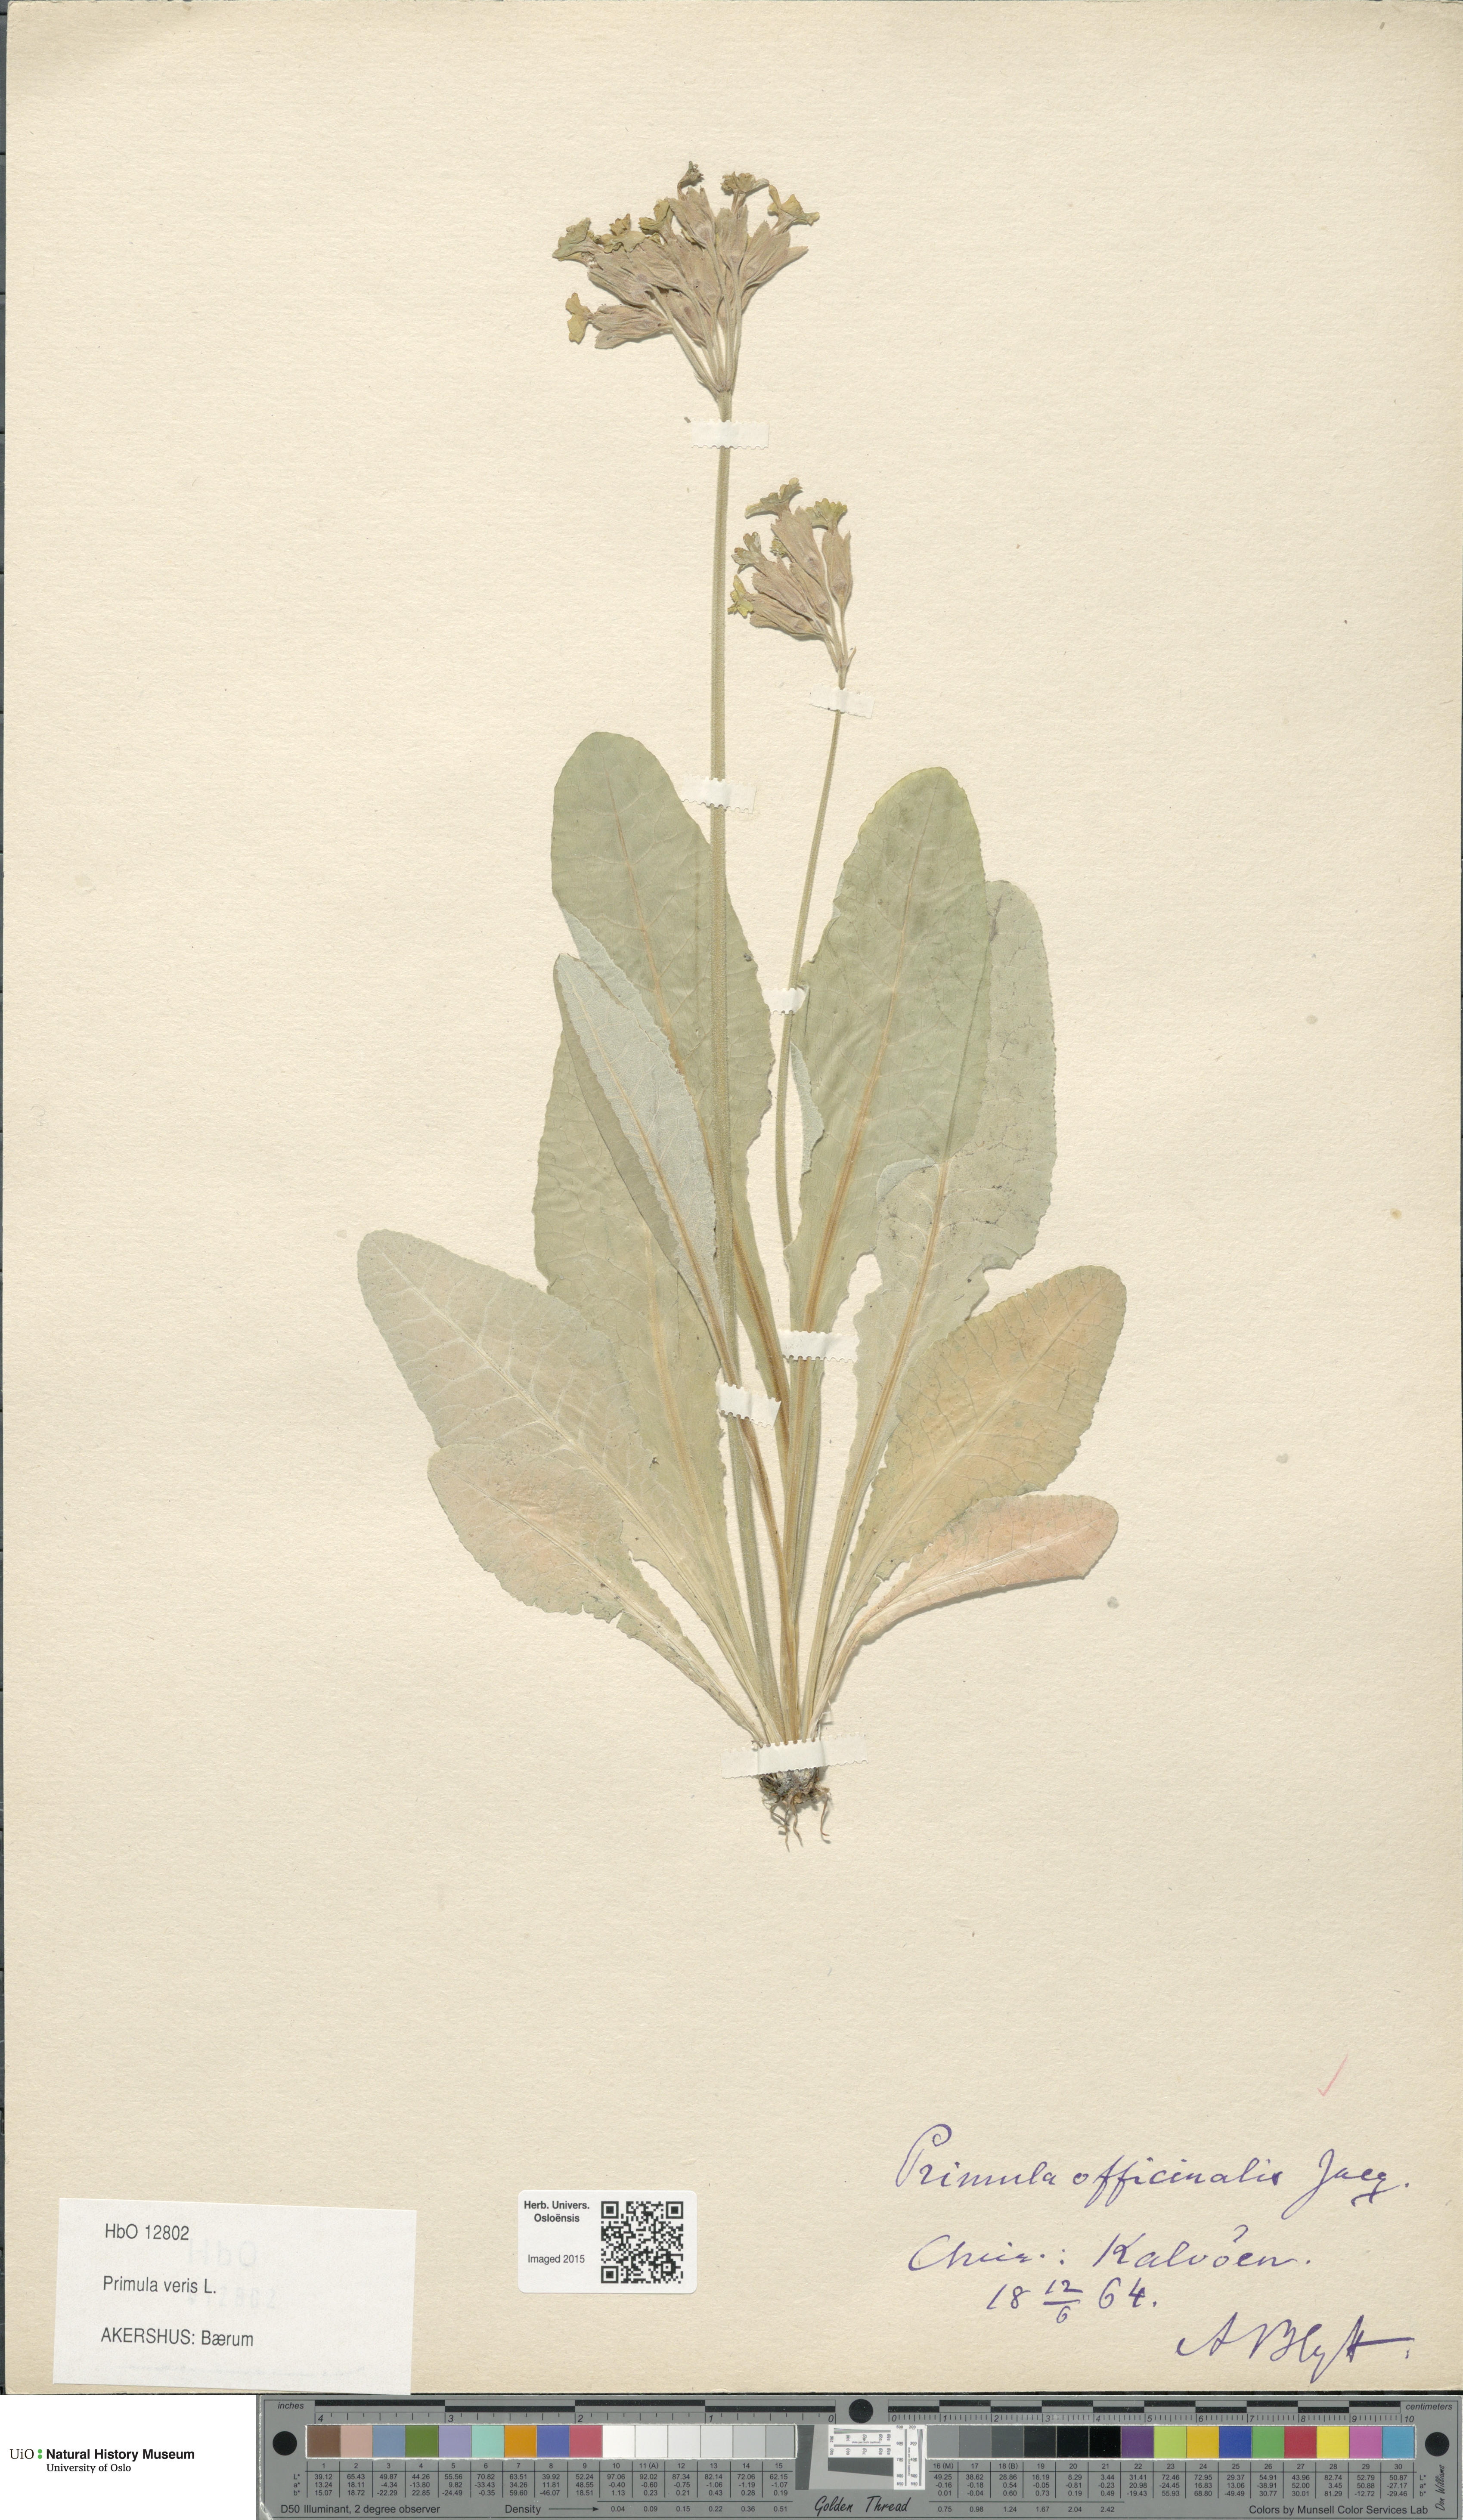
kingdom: Plantae
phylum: Tracheophyta
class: Magnoliopsida
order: Ericales
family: Primulaceae
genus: Primula
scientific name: Primula veris
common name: Cowslip
